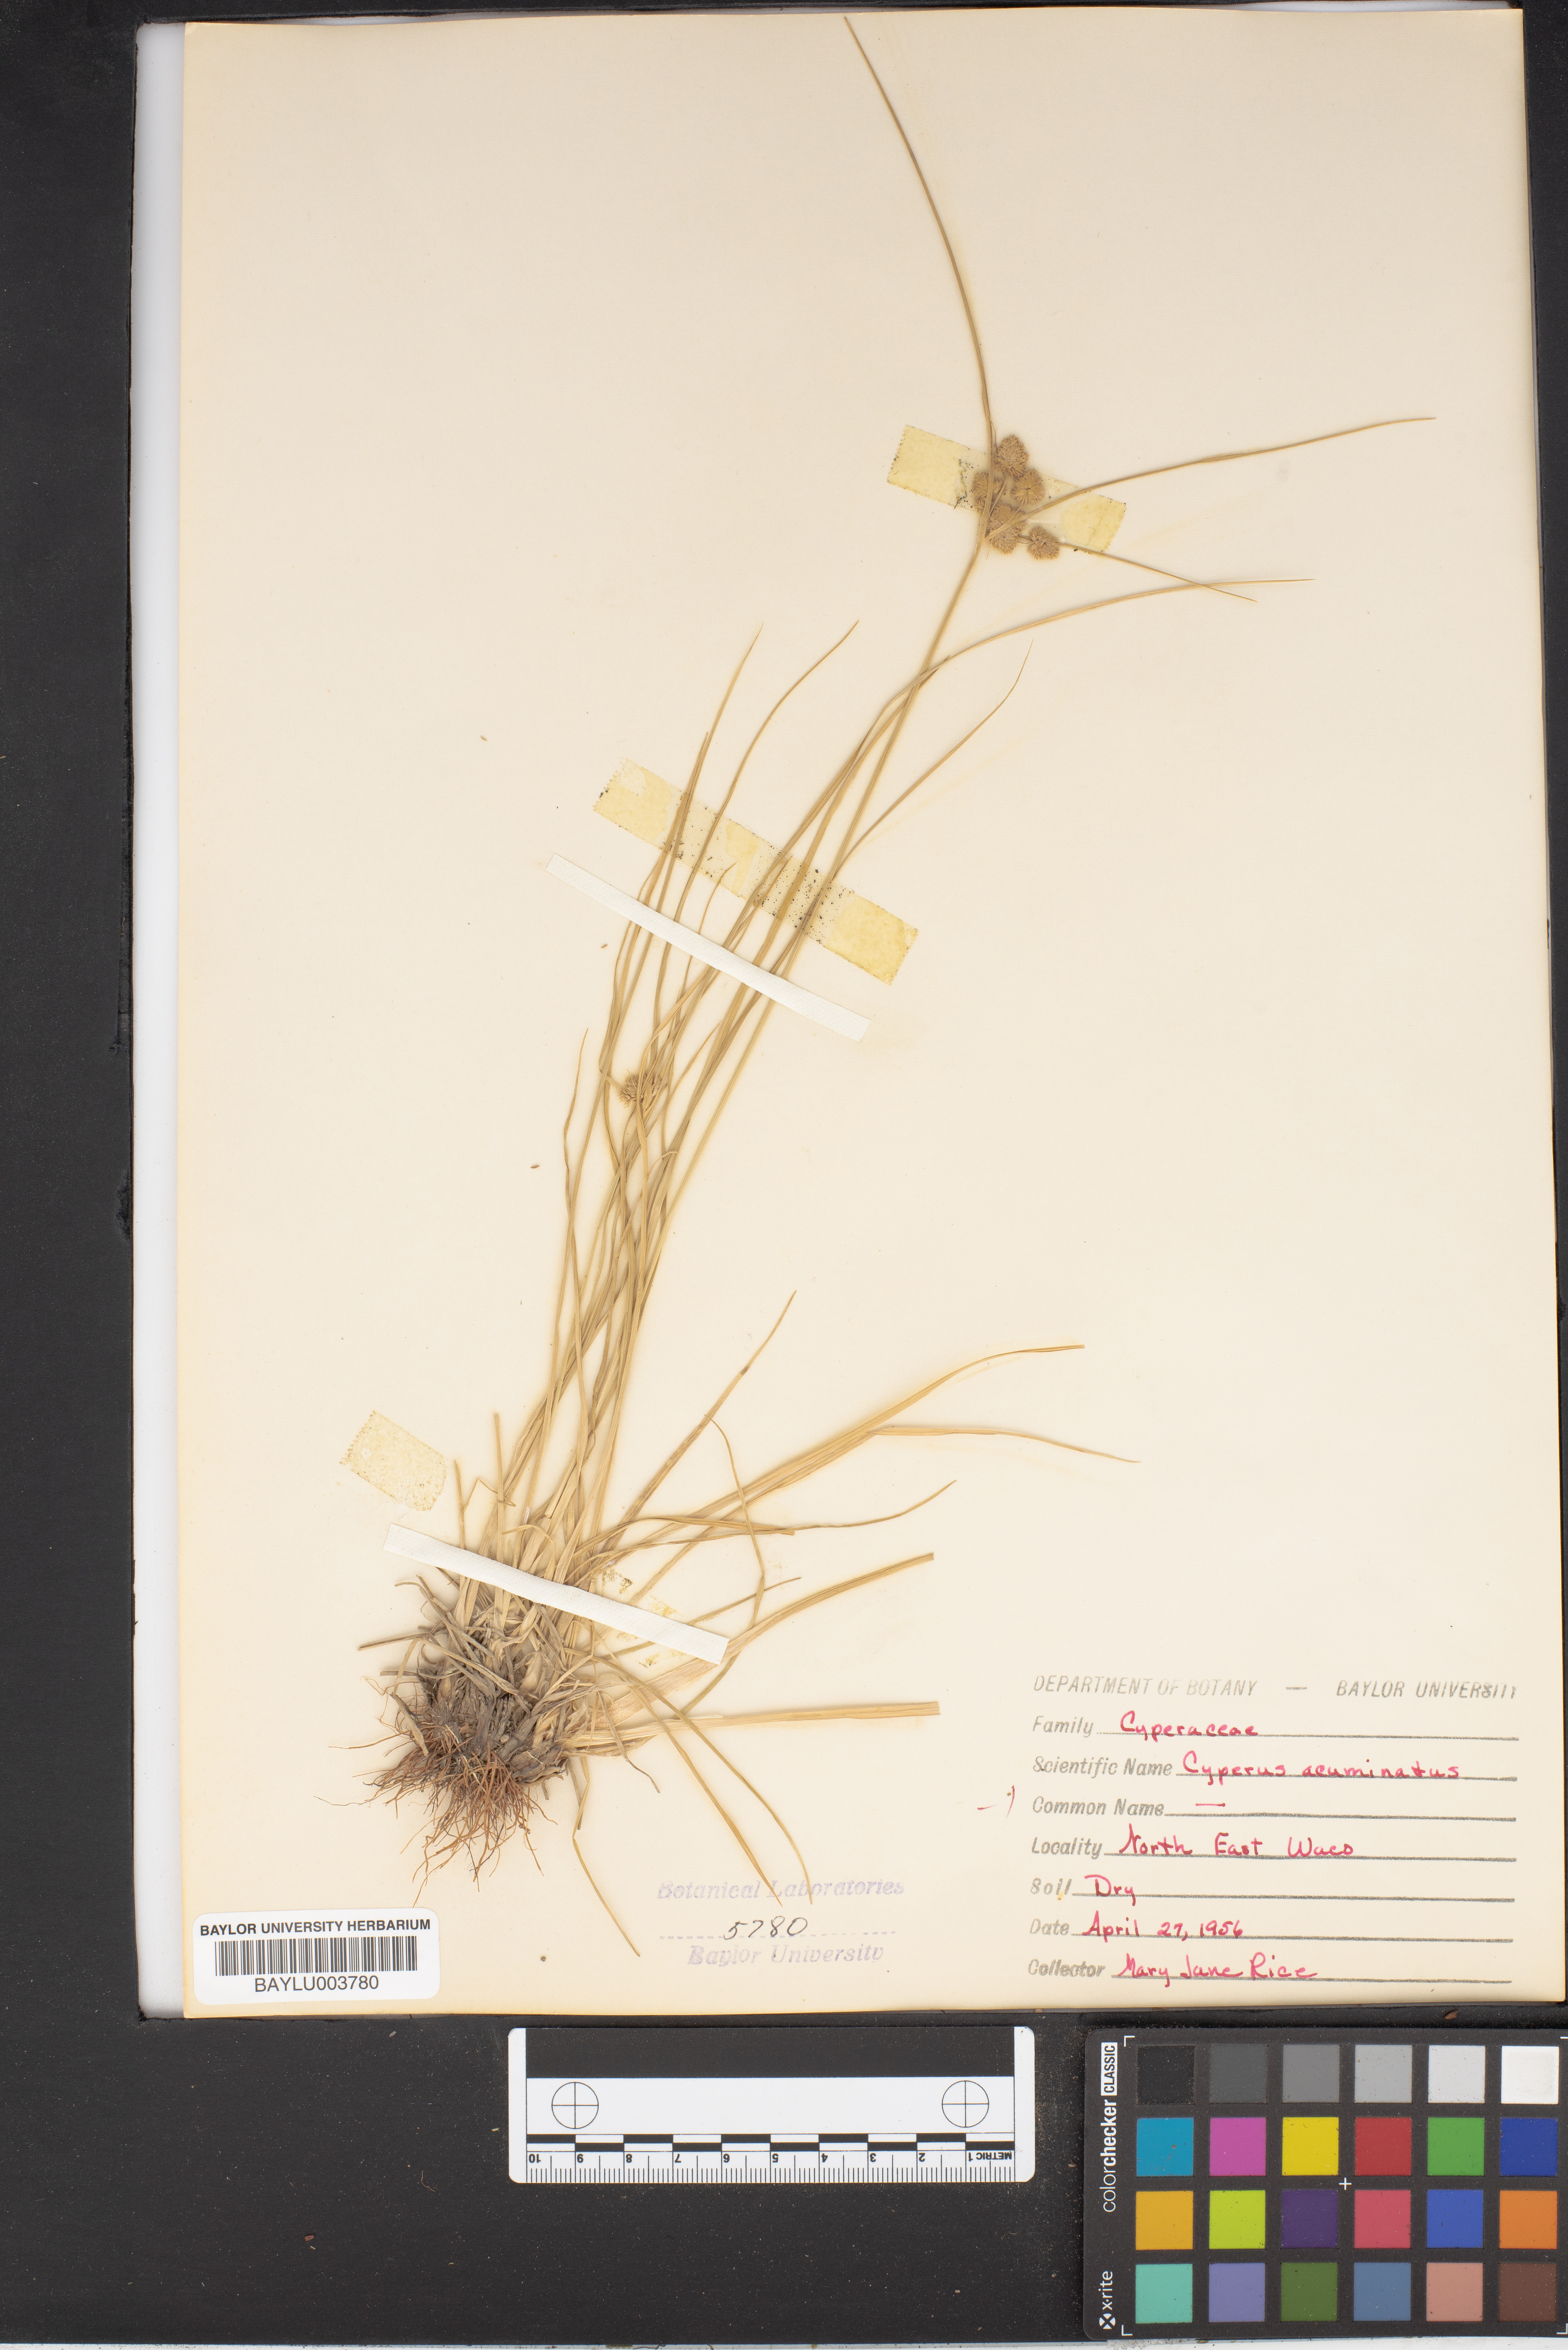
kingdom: Plantae
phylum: Tracheophyta
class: Liliopsida
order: Poales
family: Cyperaceae
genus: Cyperus
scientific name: Cyperus acuminatus
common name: Short-pointed cyperus
